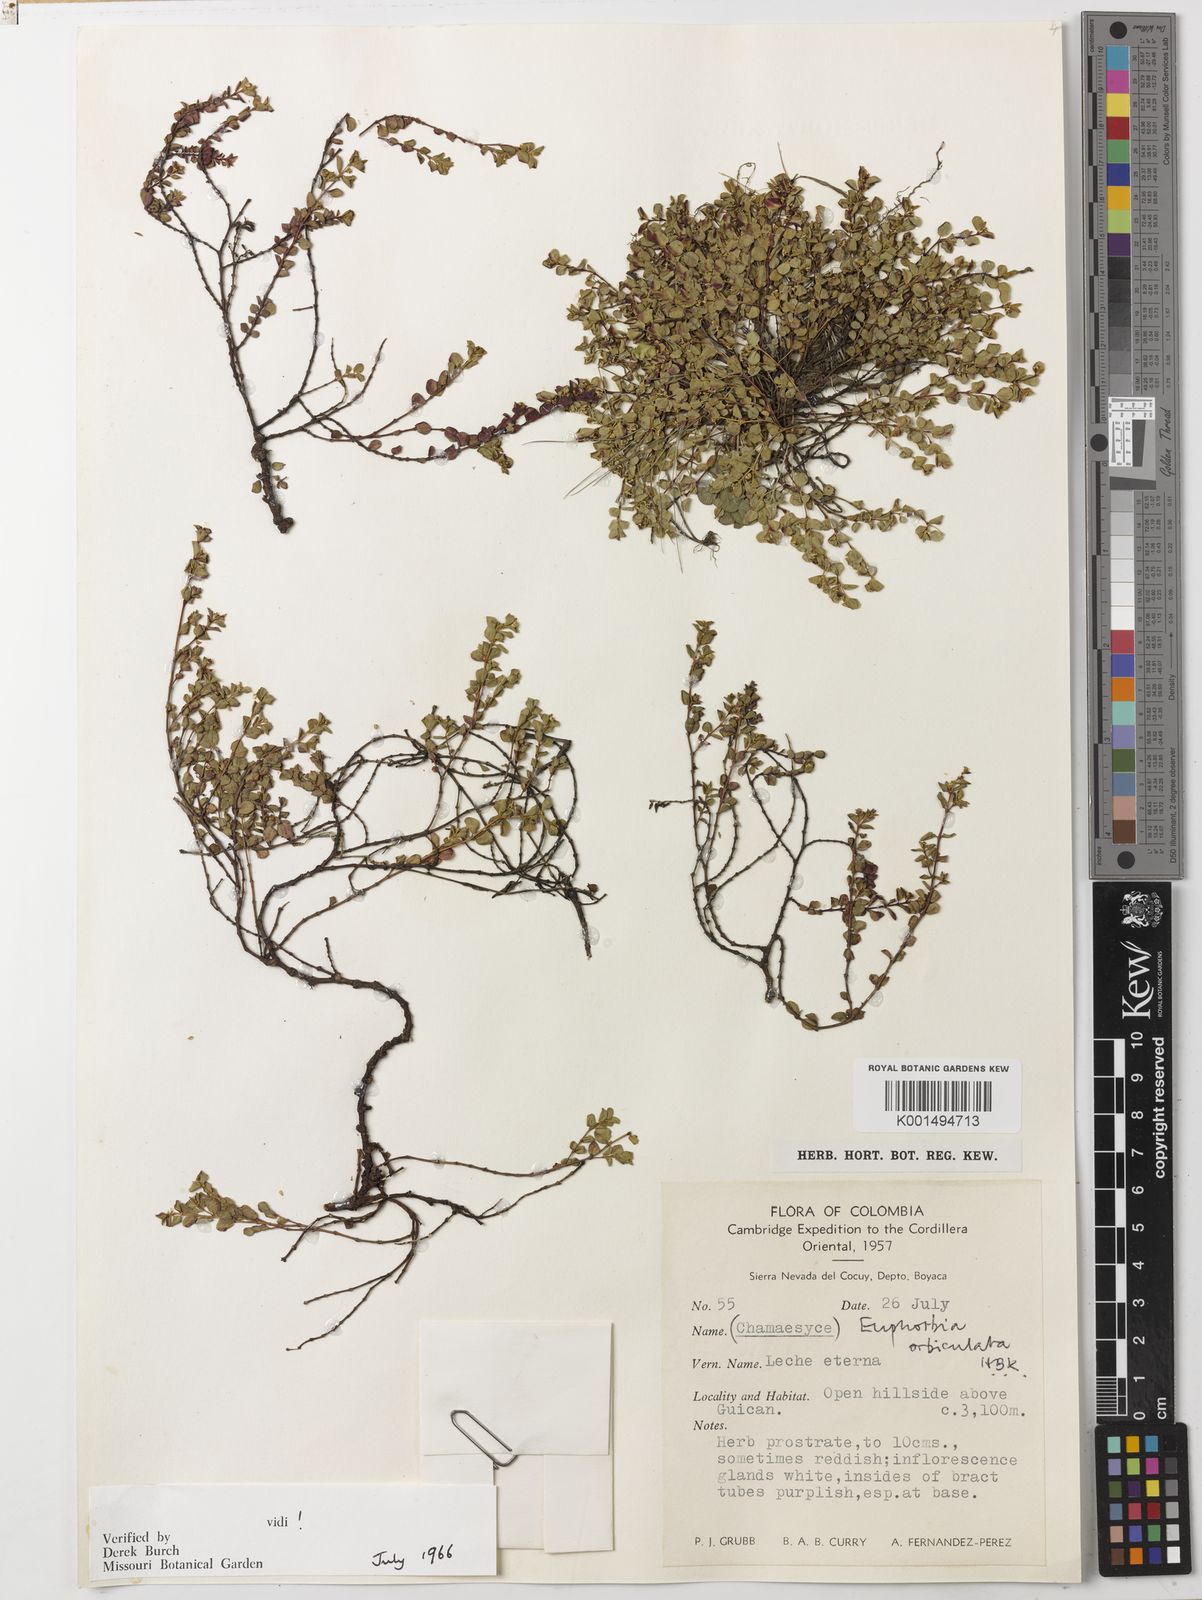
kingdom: Plantae
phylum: Tracheophyta
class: Magnoliopsida
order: Malpighiales
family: Euphorbiaceae
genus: Euphorbia
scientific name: Euphorbia orbiculata
